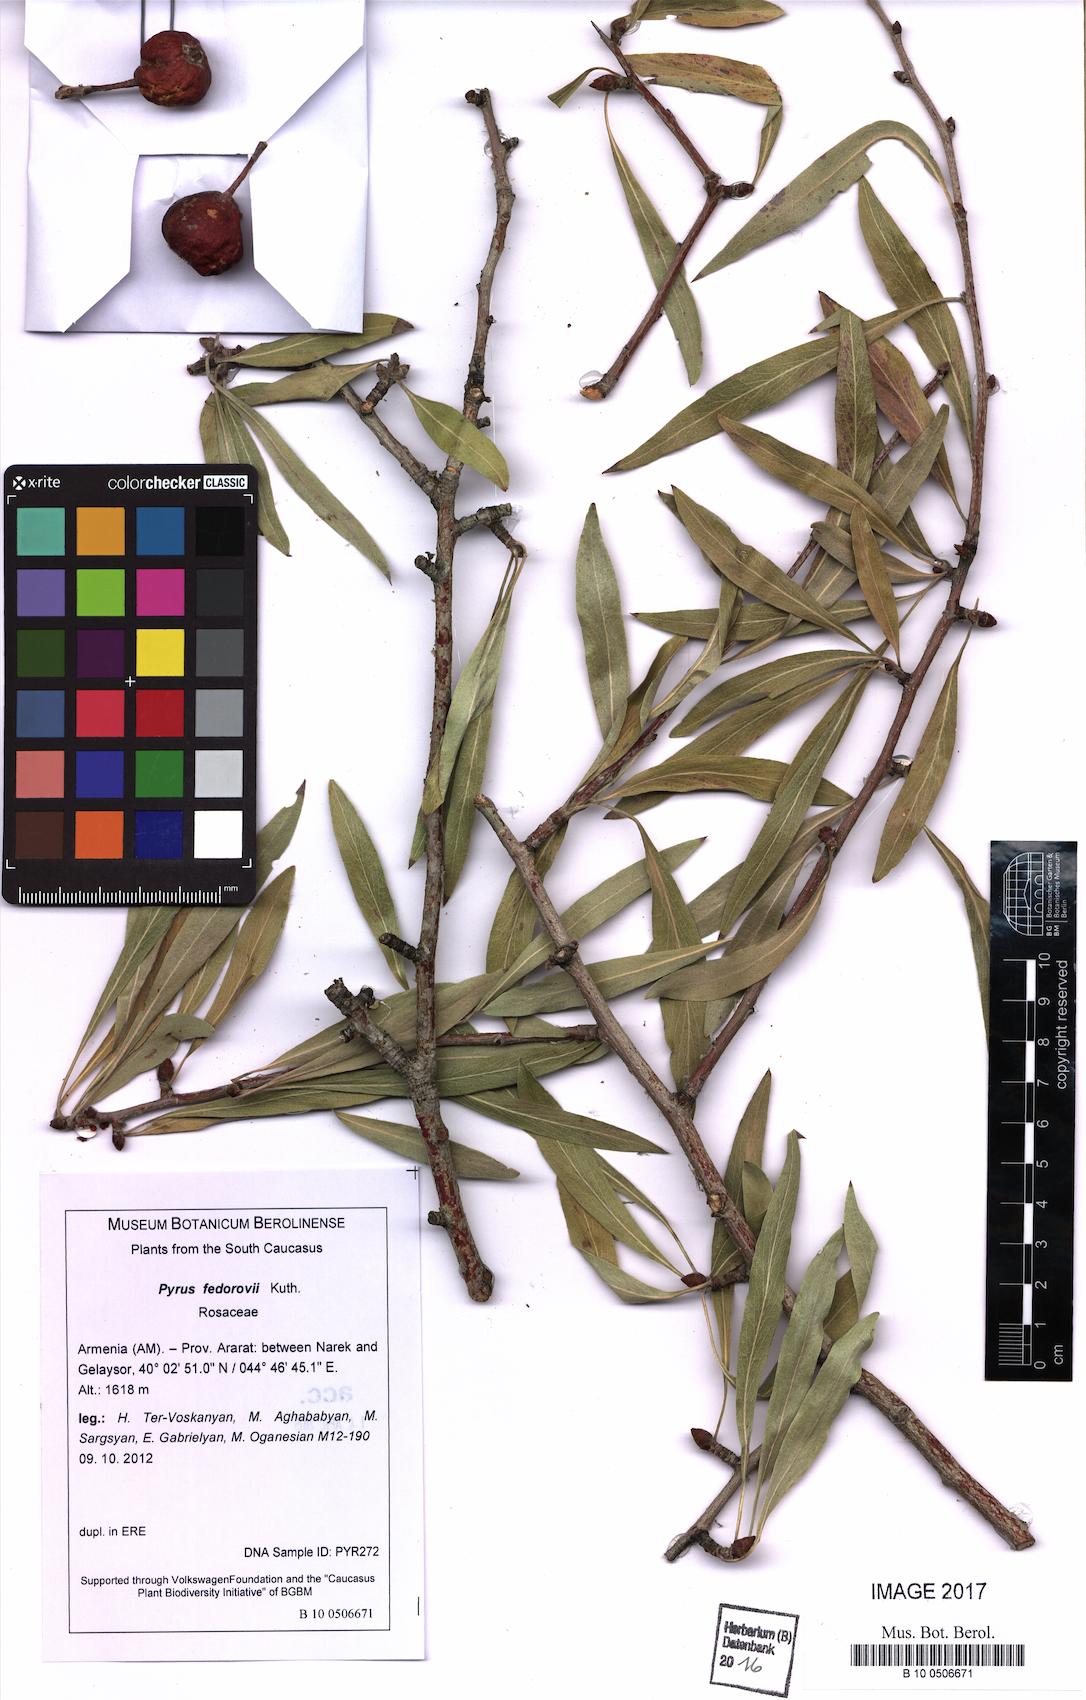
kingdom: Plantae
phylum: Tracheophyta
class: Magnoliopsida
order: Rosales
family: Rosaceae
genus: Pyrus
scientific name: Pyrus fedorovii
